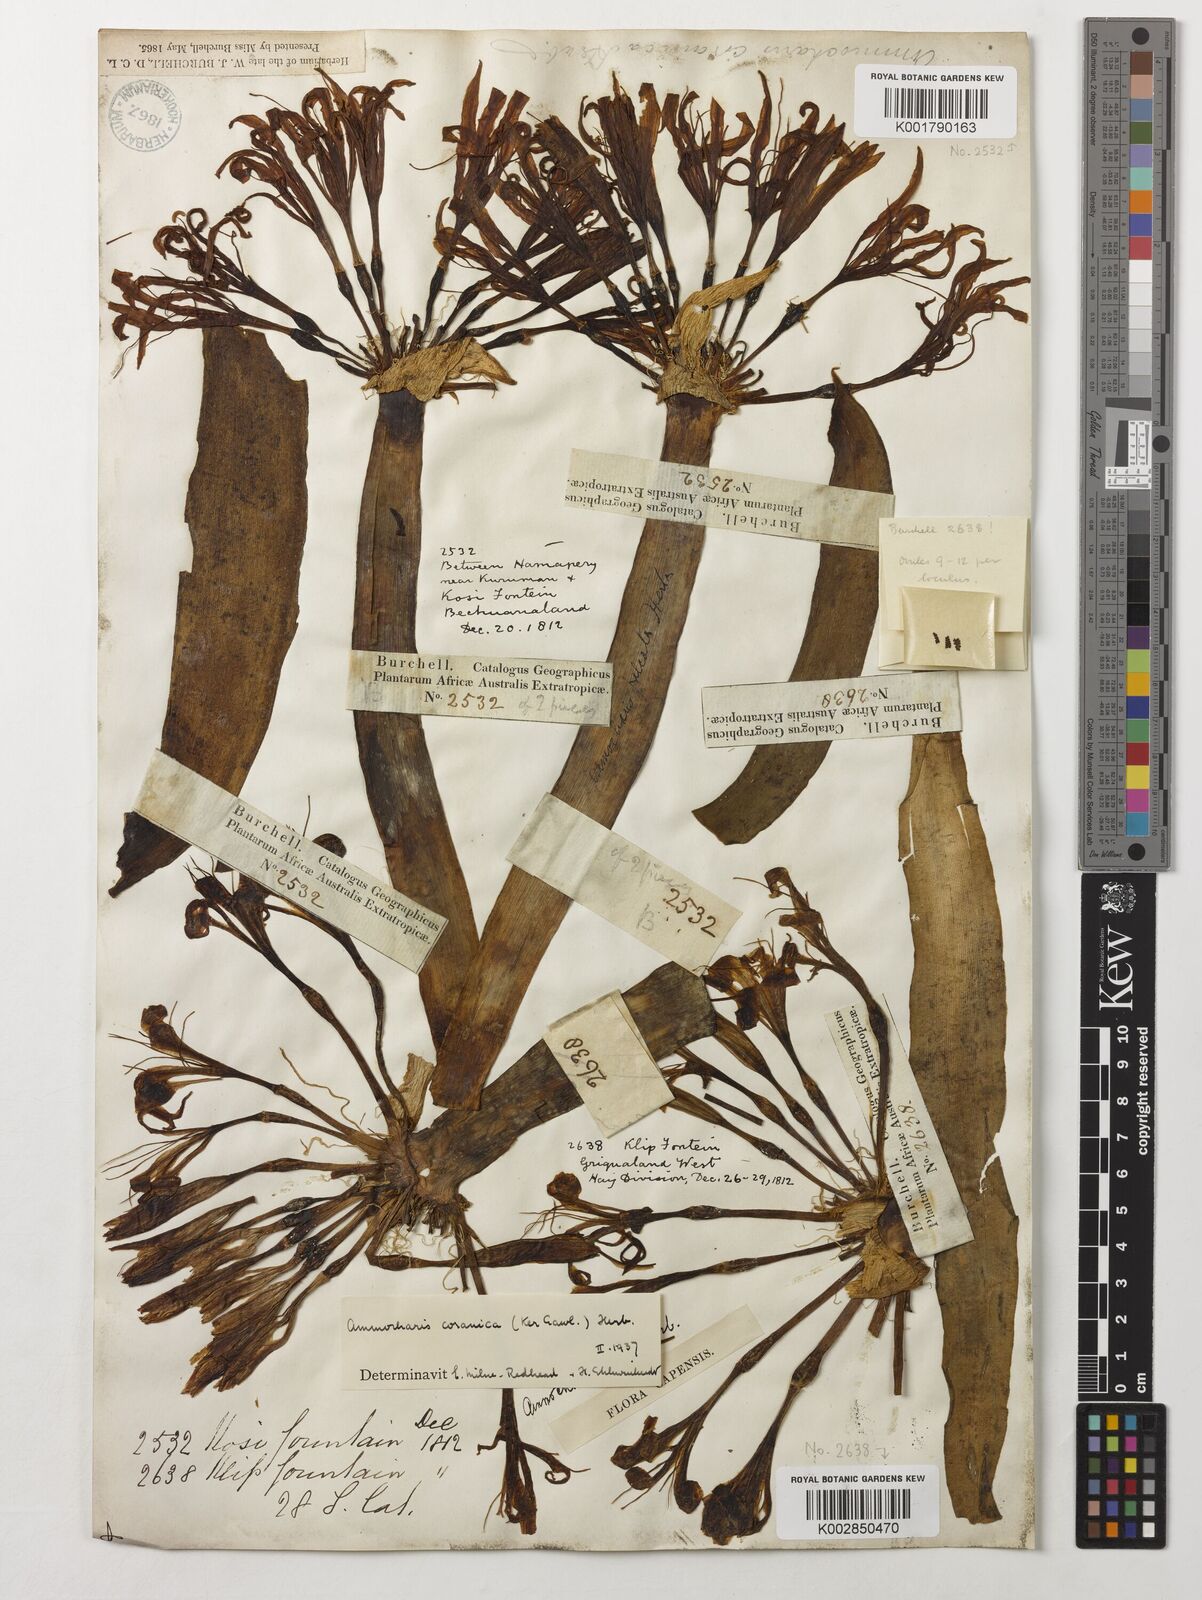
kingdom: Plantae
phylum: Tracheophyta
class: Liliopsida
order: Asparagales
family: Amaryllidaceae
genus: Ammocharis
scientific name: Ammocharis coranica
